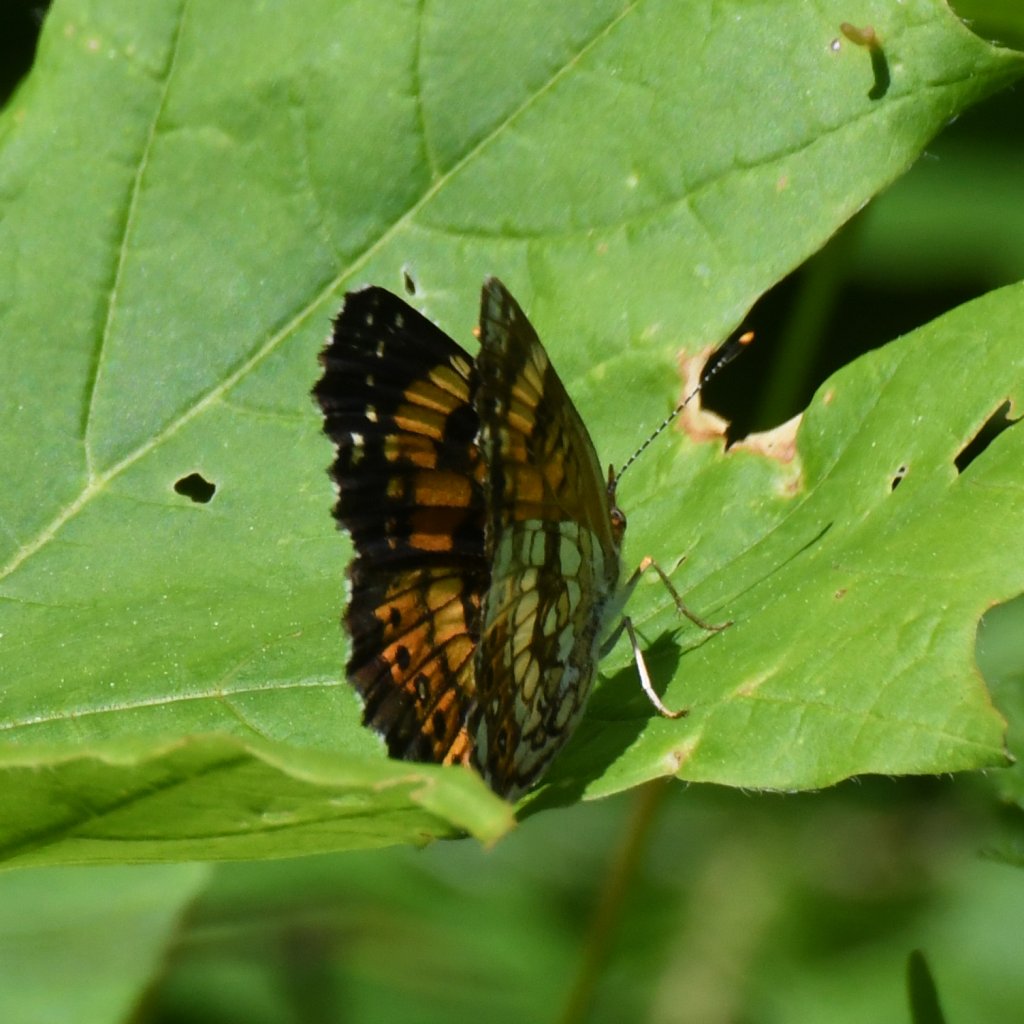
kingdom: Animalia
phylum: Arthropoda
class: Insecta
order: Lepidoptera
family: Nymphalidae
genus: Chlosyne
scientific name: Chlosyne nycteis
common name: Silvery Checkerspot
